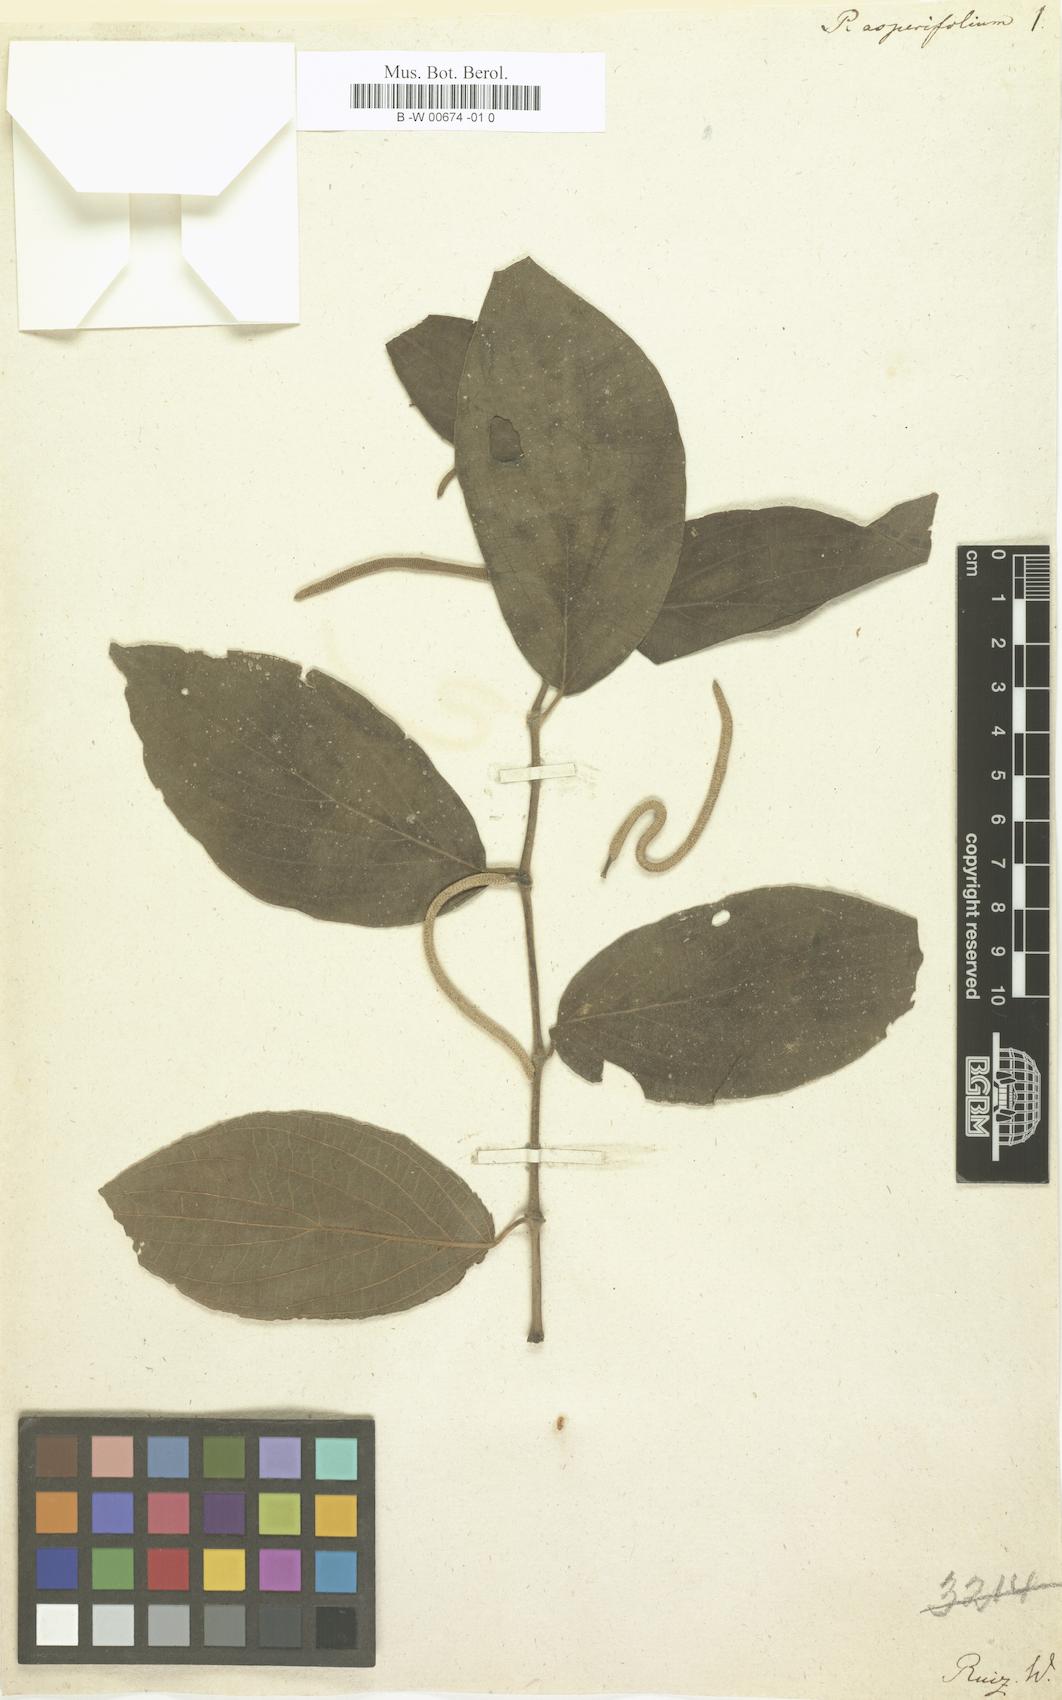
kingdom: Plantae
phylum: Tracheophyta
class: Magnoliopsida
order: Piperales
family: Piperaceae
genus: Piper
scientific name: Piper asperifolium
